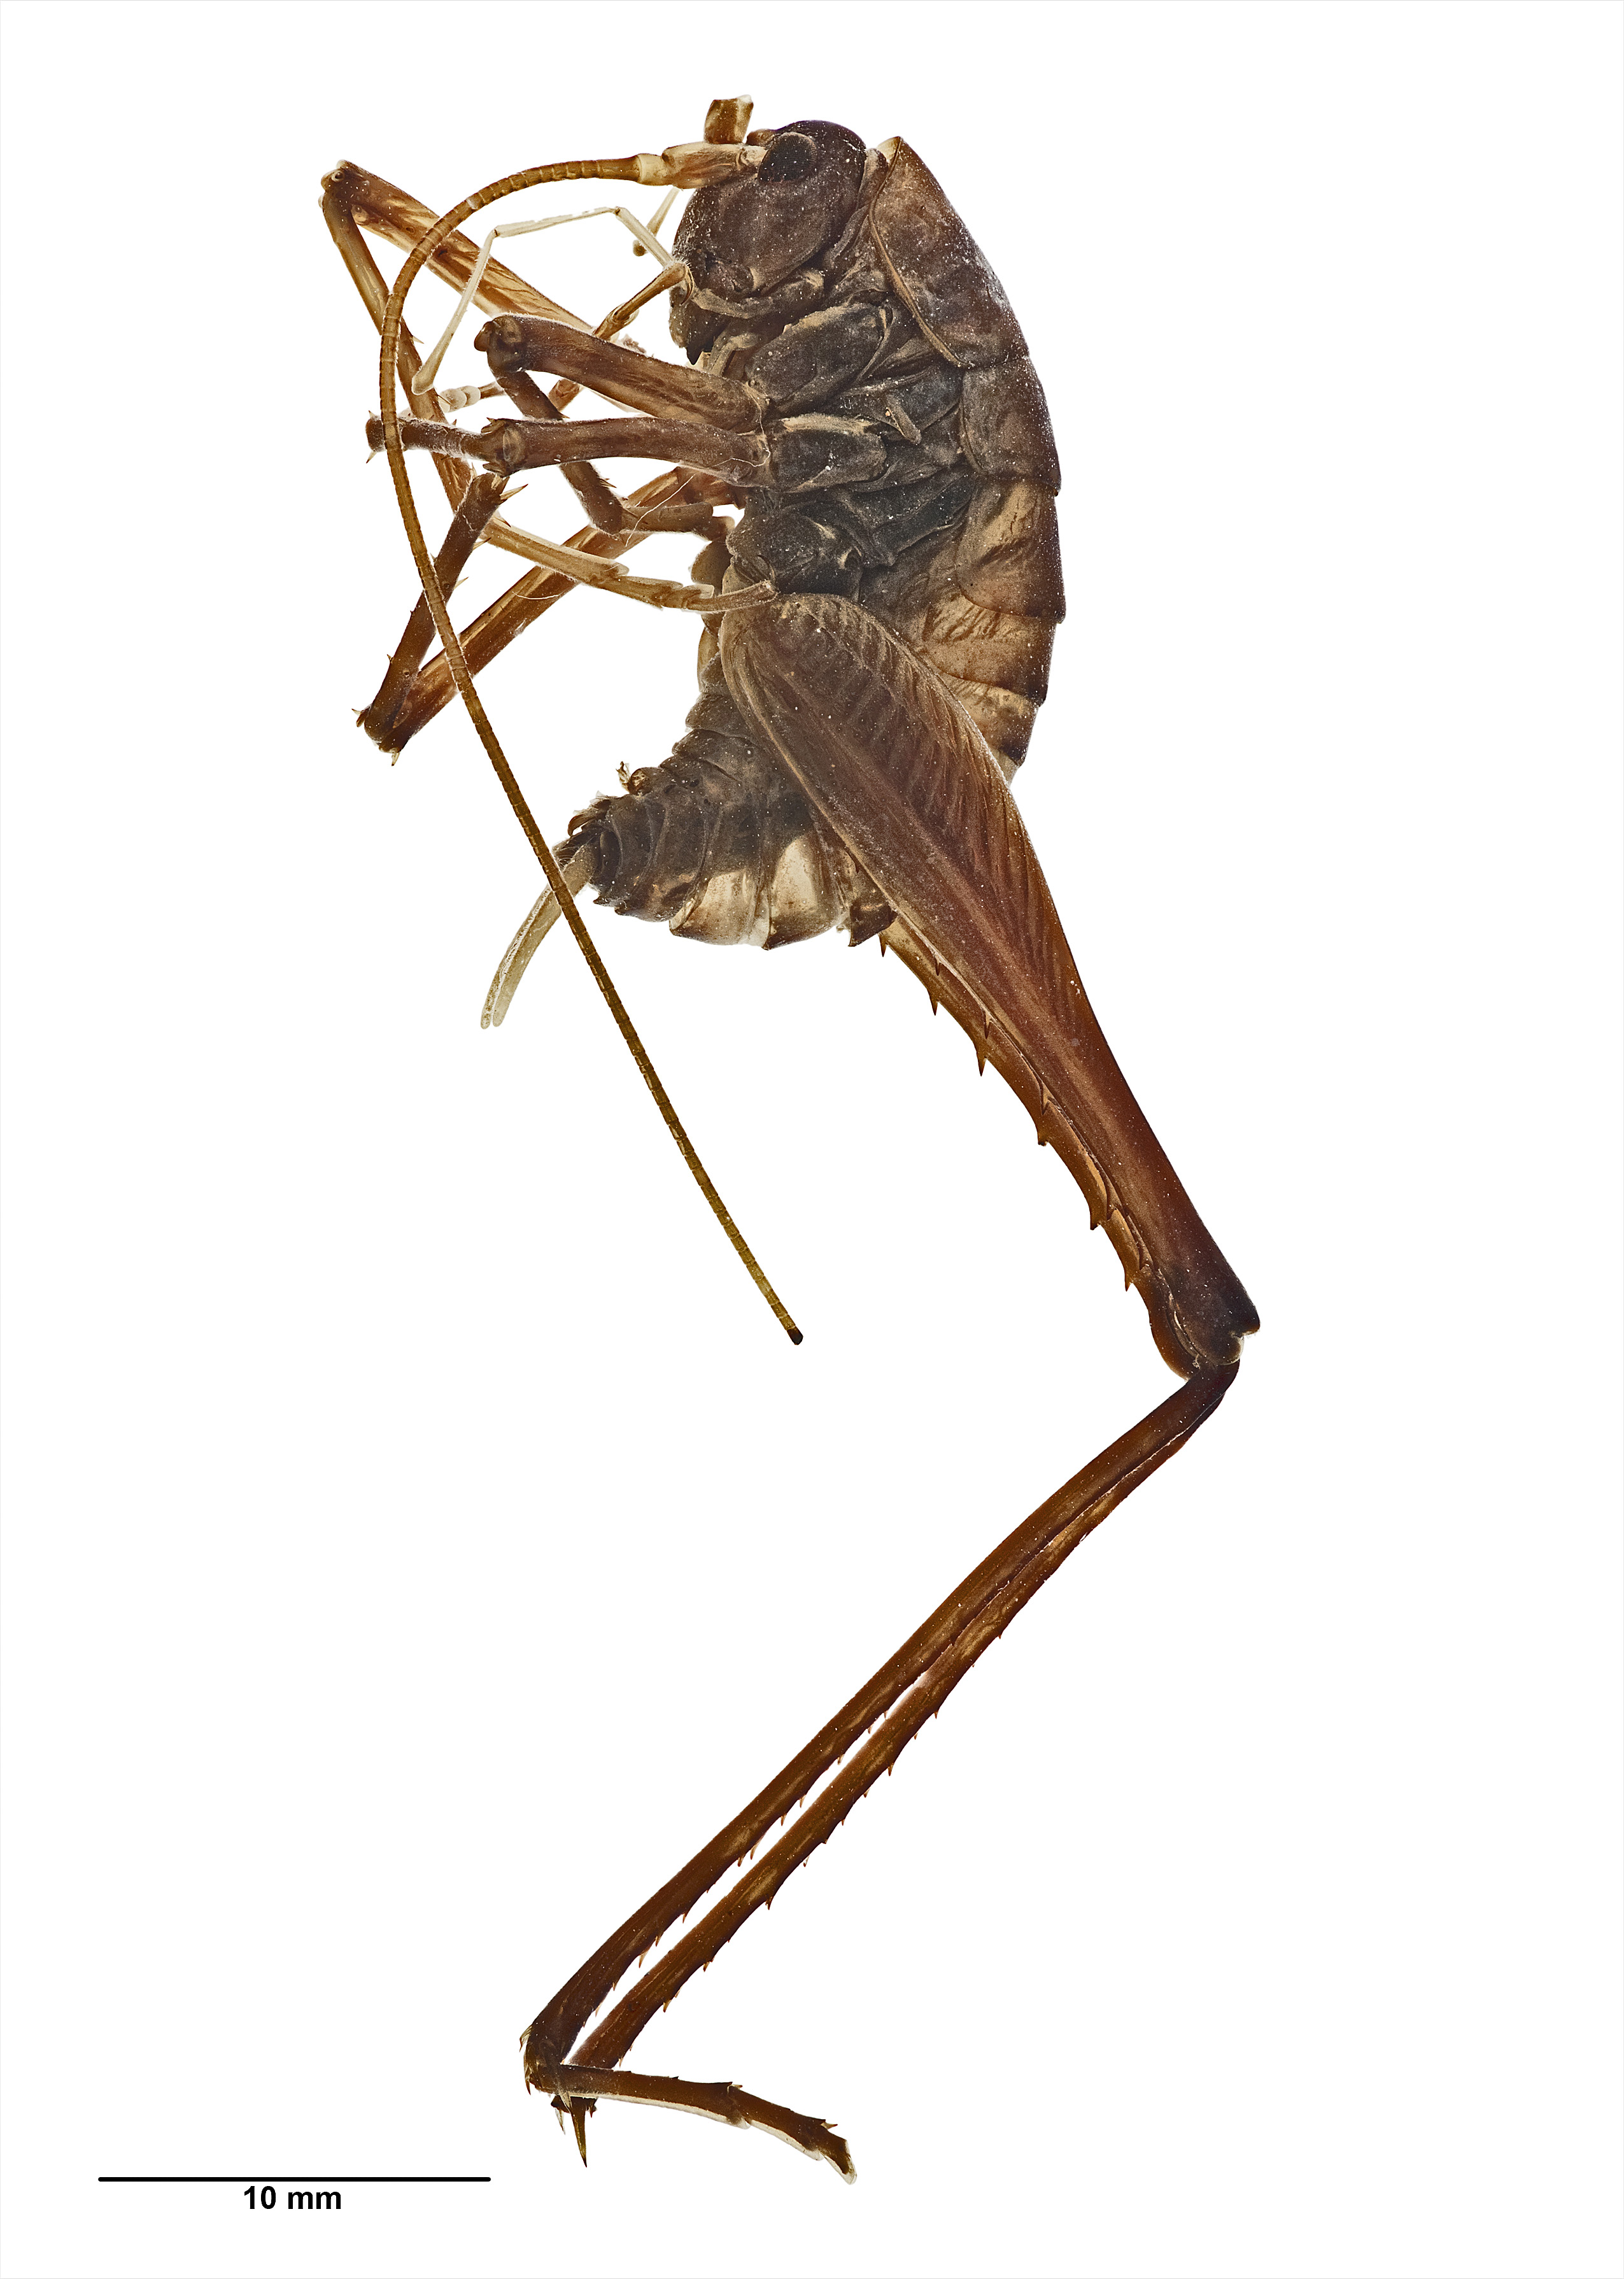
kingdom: Animalia
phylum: Arthropoda
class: Insecta
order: Orthoptera
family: Rhaphidophoridae
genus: Pachyrhamma
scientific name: Pachyrhamma
